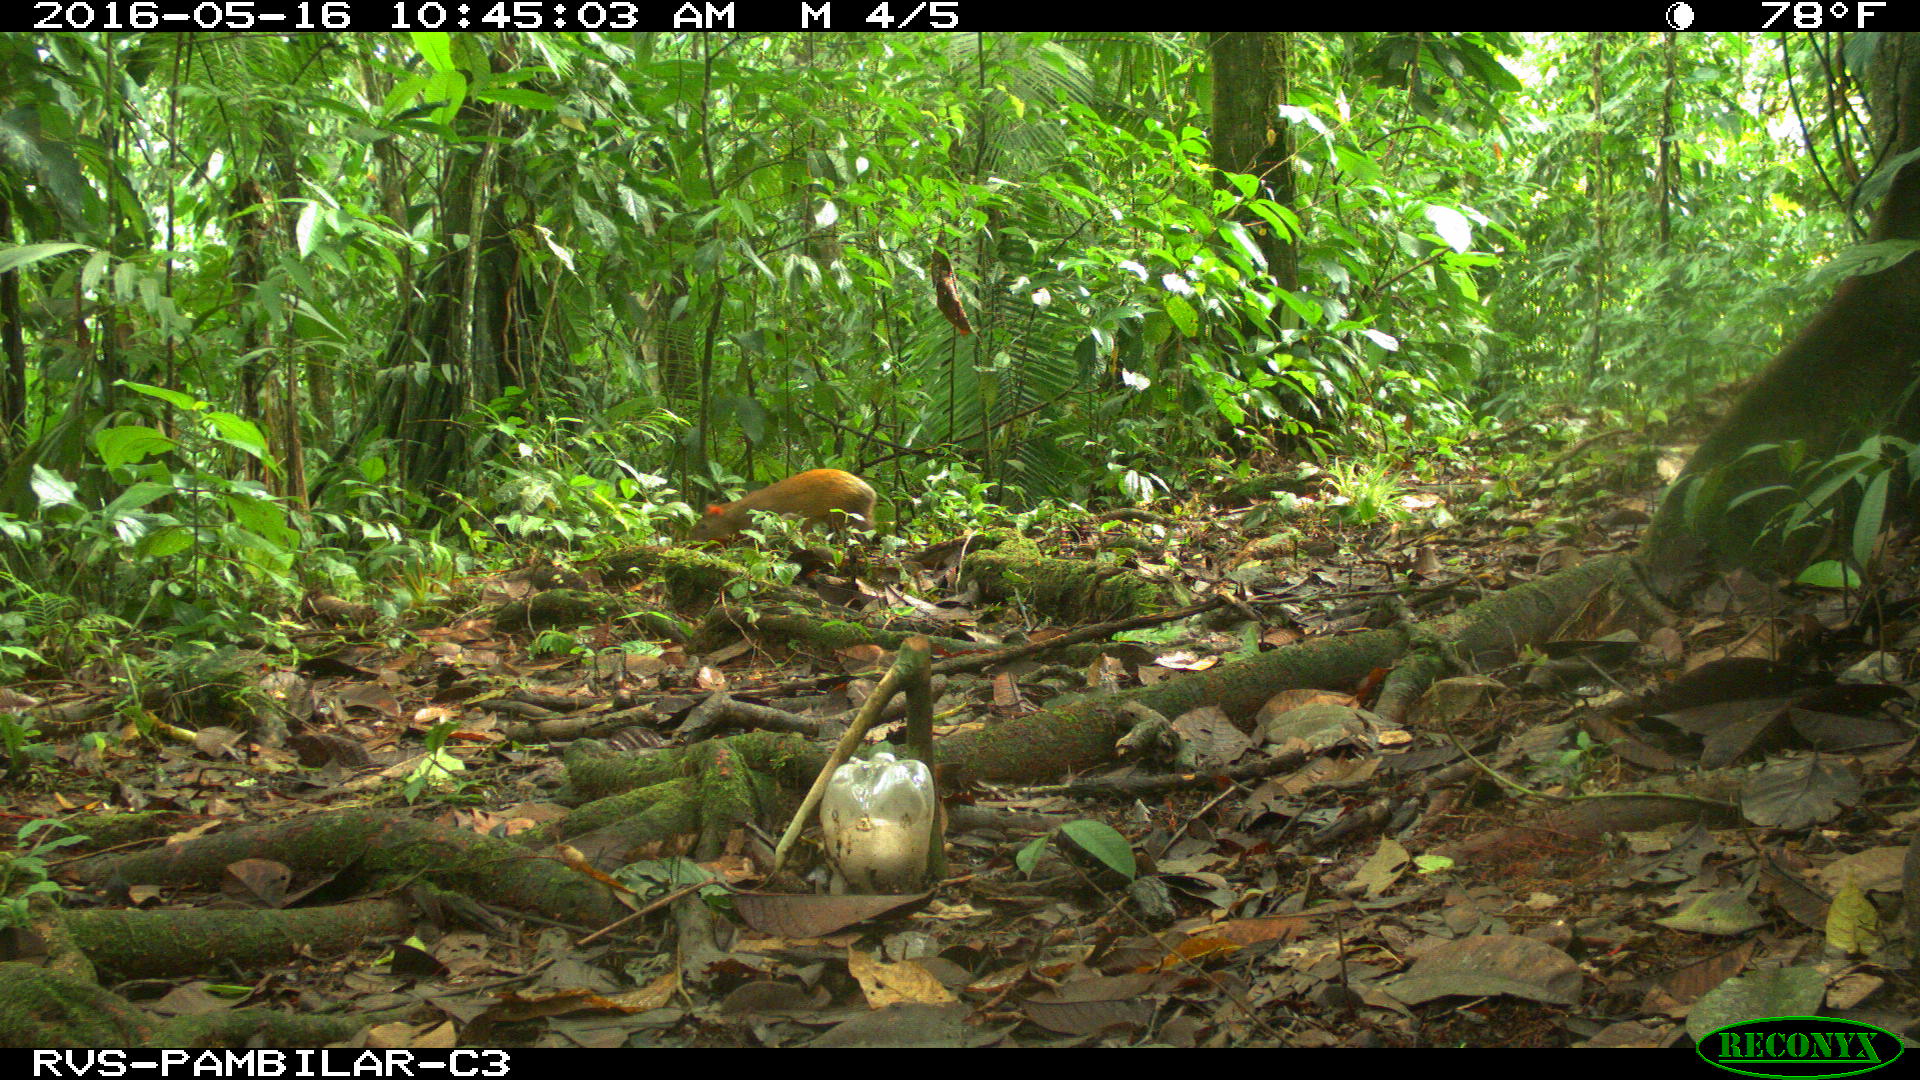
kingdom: Animalia
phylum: Chordata
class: Mammalia
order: Rodentia
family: Dasyproctidae
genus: Dasyprocta
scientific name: Dasyprocta punctata
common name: Central american agouti
